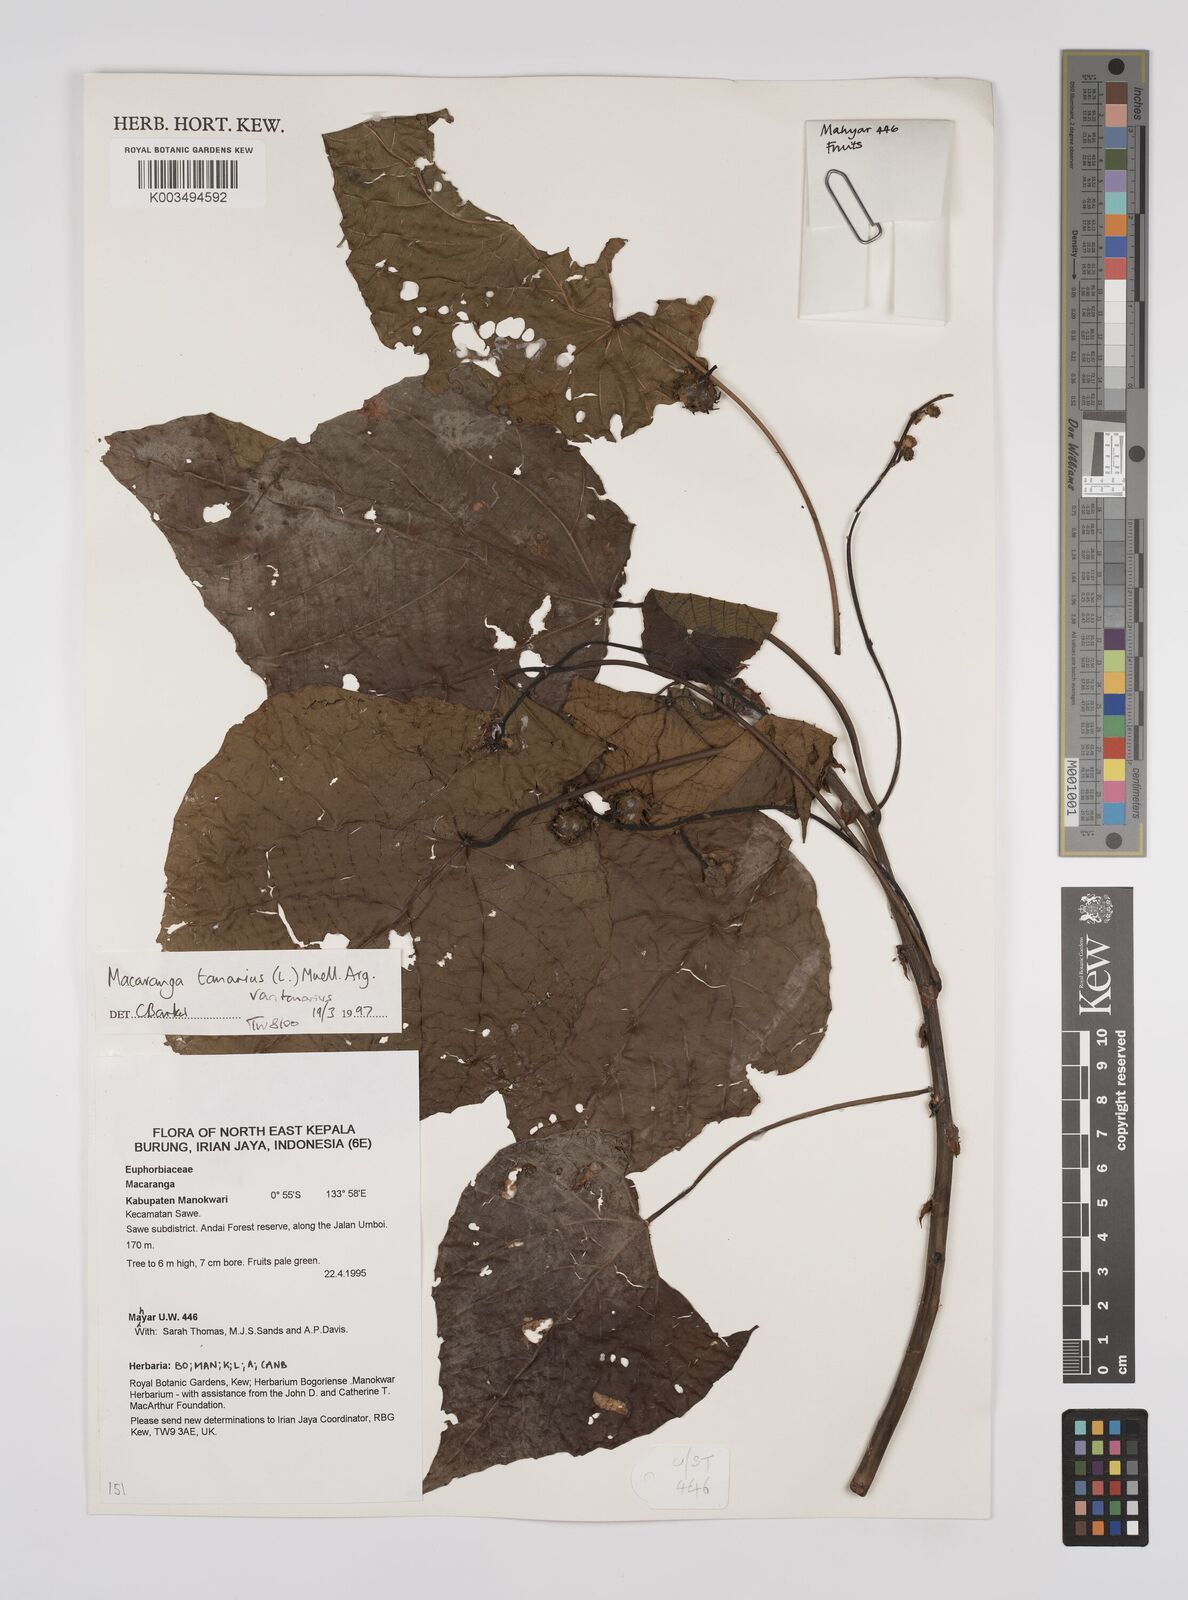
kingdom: Plantae
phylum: Tracheophyta
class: Magnoliopsida
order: Malpighiales
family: Euphorbiaceae
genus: Macaranga
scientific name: Macaranga tanarius
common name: Parasol leaf tree
